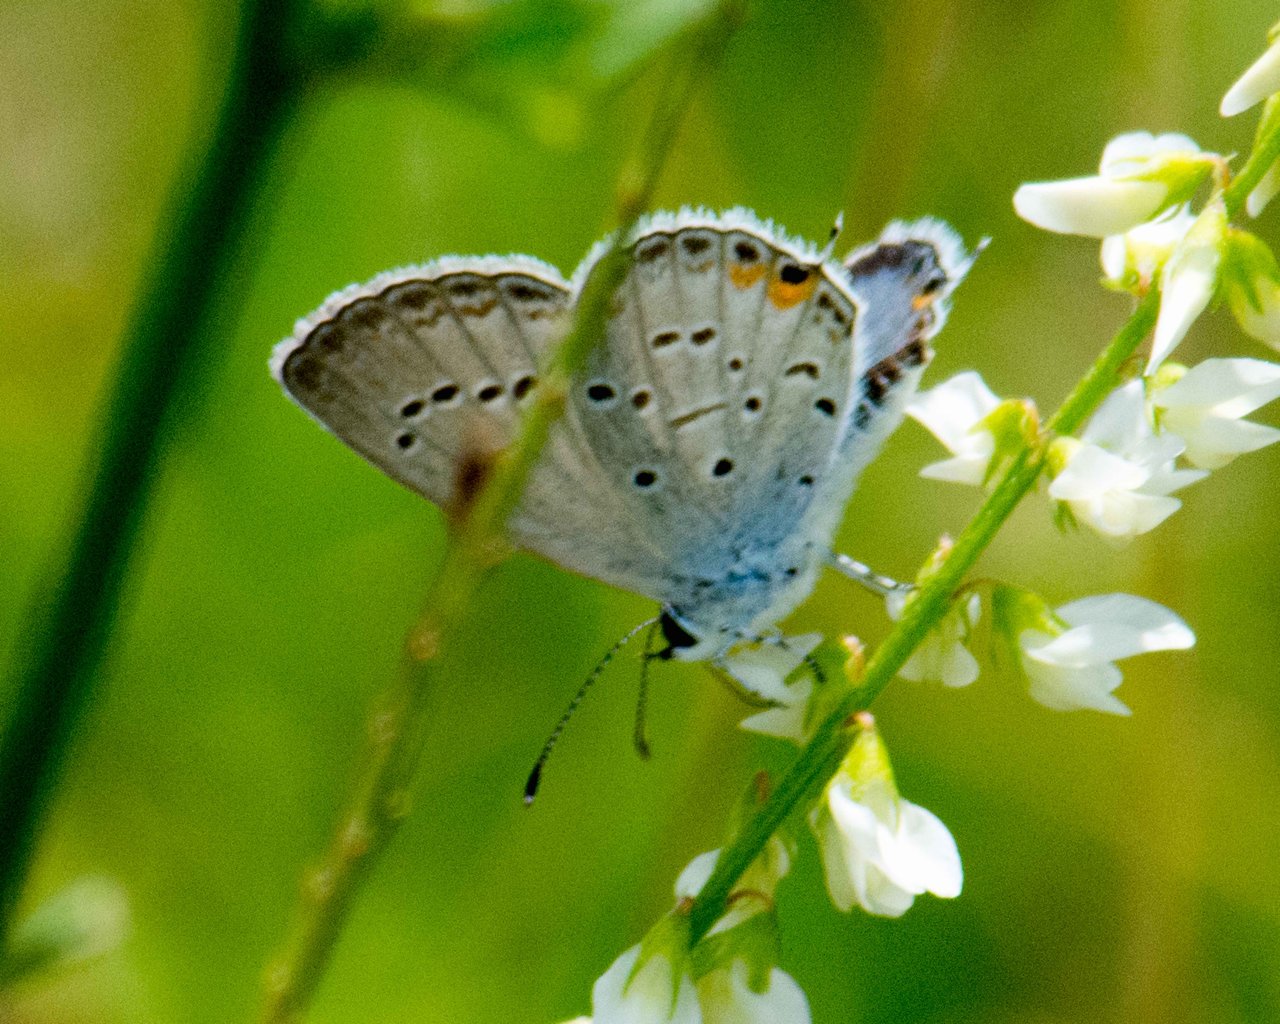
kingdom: Animalia
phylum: Arthropoda
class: Insecta
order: Lepidoptera
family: Lycaenidae
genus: Elkalyce
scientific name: Elkalyce comyntas
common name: Eastern Tailed-Blue
